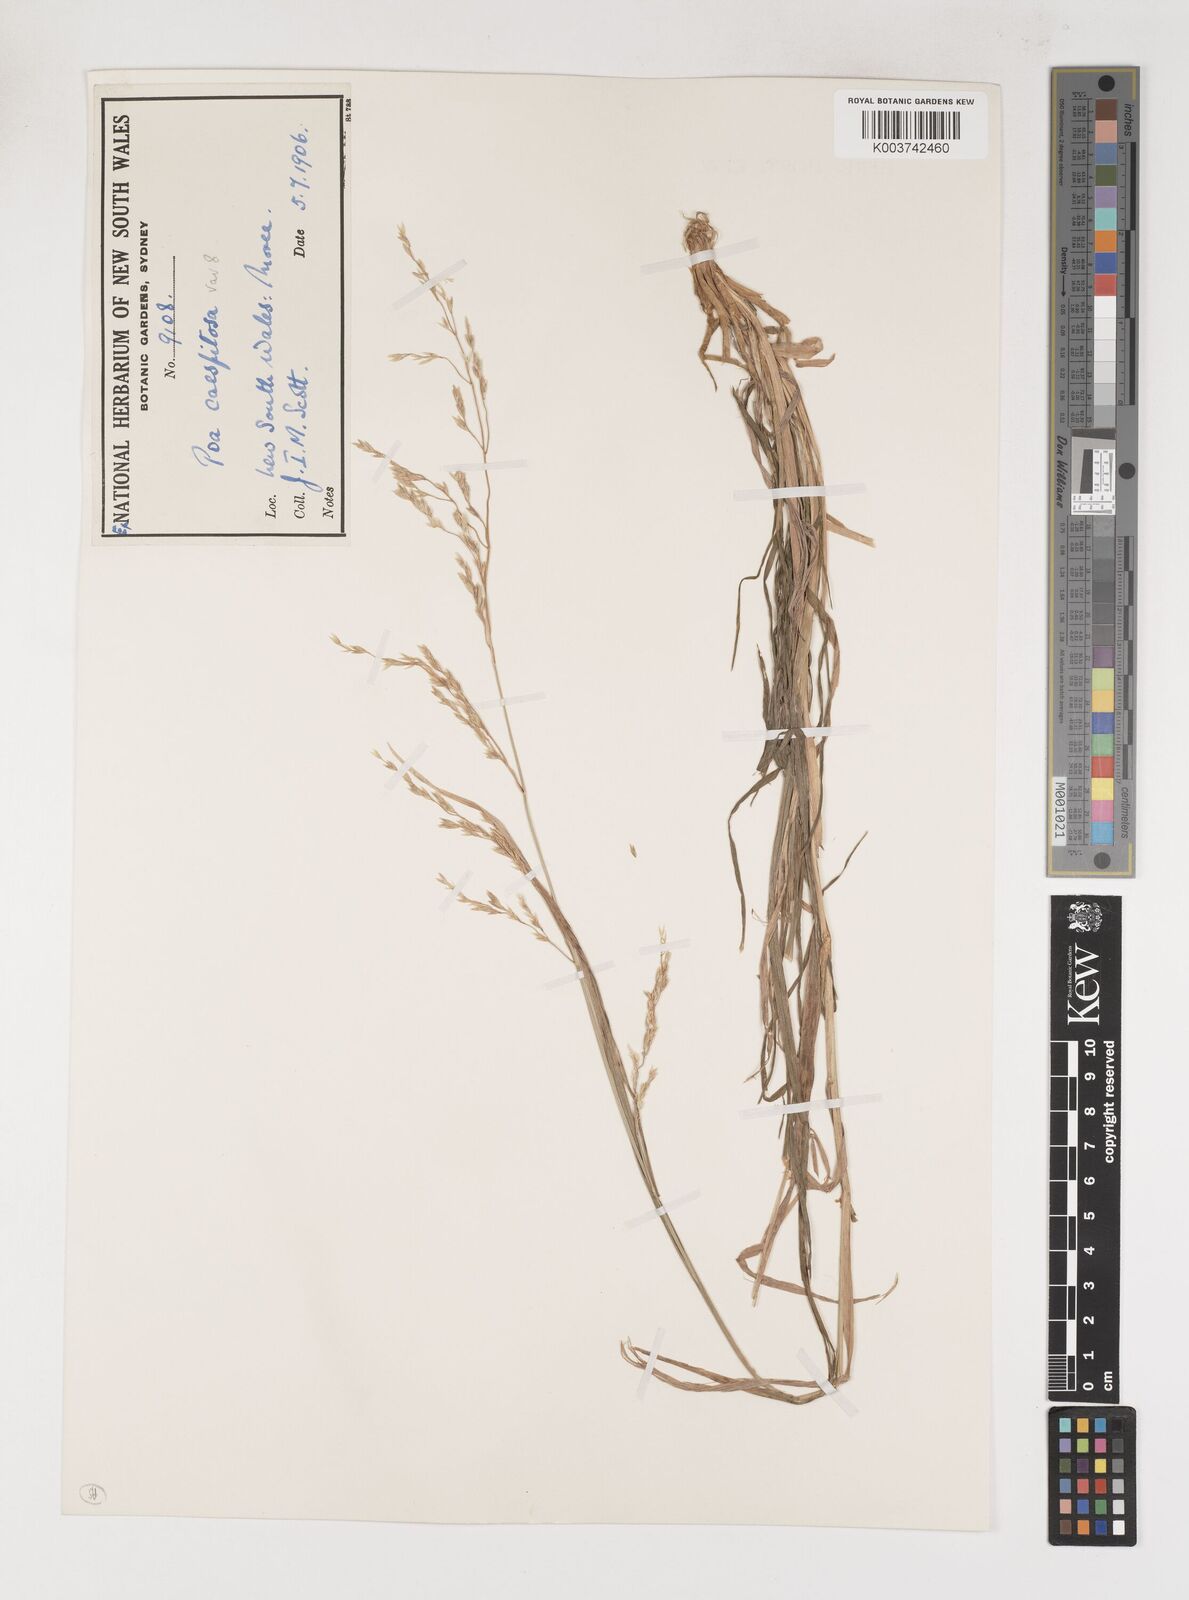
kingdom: Plantae
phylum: Tracheophyta
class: Liliopsida
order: Poales
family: Poaceae
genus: Poa
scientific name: Poa
